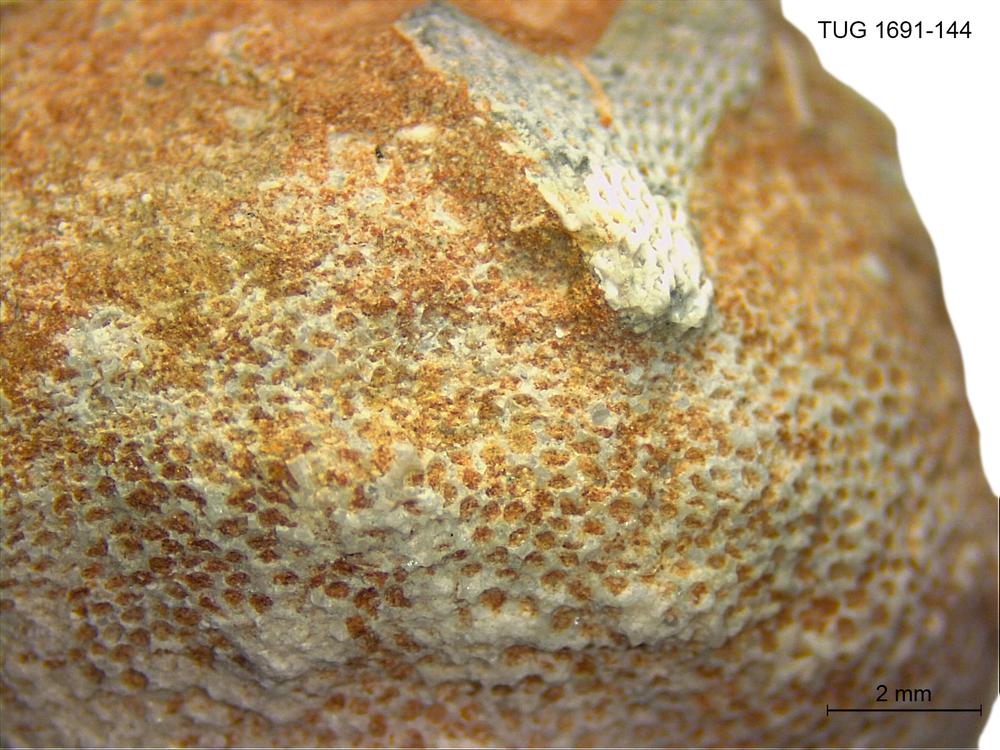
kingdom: Animalia
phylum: Bryozoa
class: Stenolaemata
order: Trepostomatida
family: Diplotrypidae
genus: Diplotrypa
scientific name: Diplotrypa
